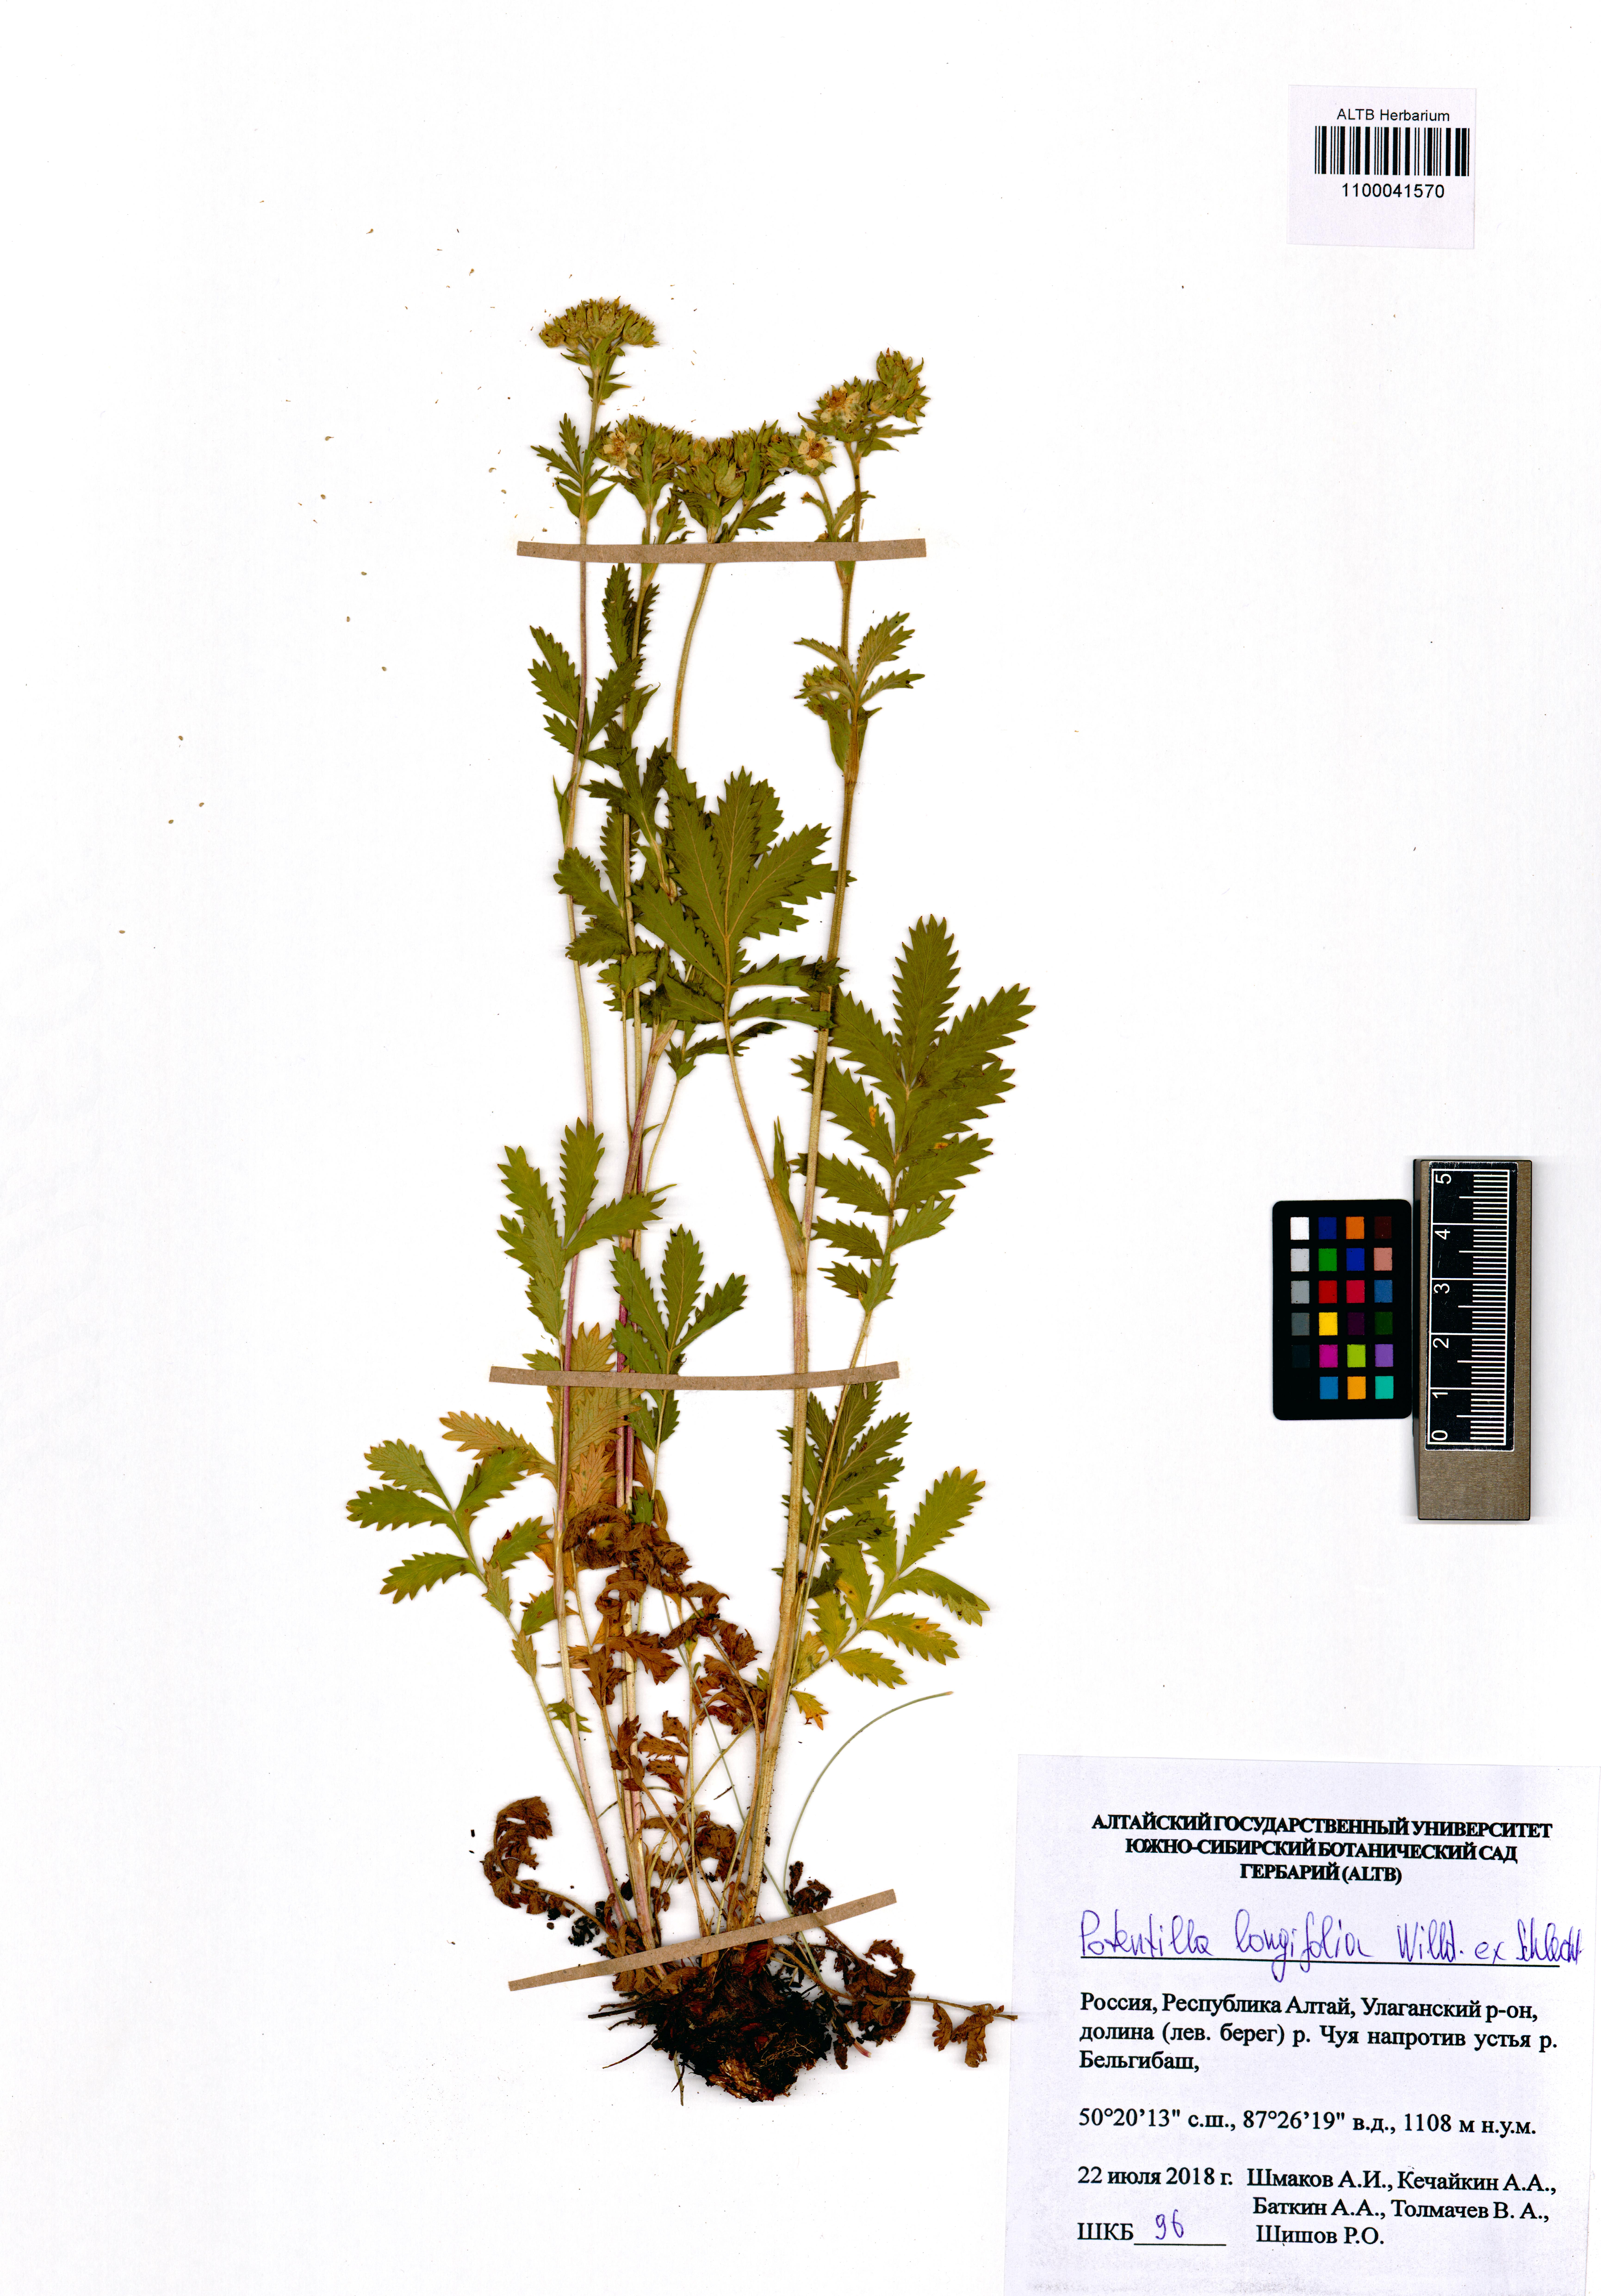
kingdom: Plantae
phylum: Tracheophyta
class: Magnoliopsida
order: Rosales
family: Rosaceae
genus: Potentilla
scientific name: Potentilla longifolia
